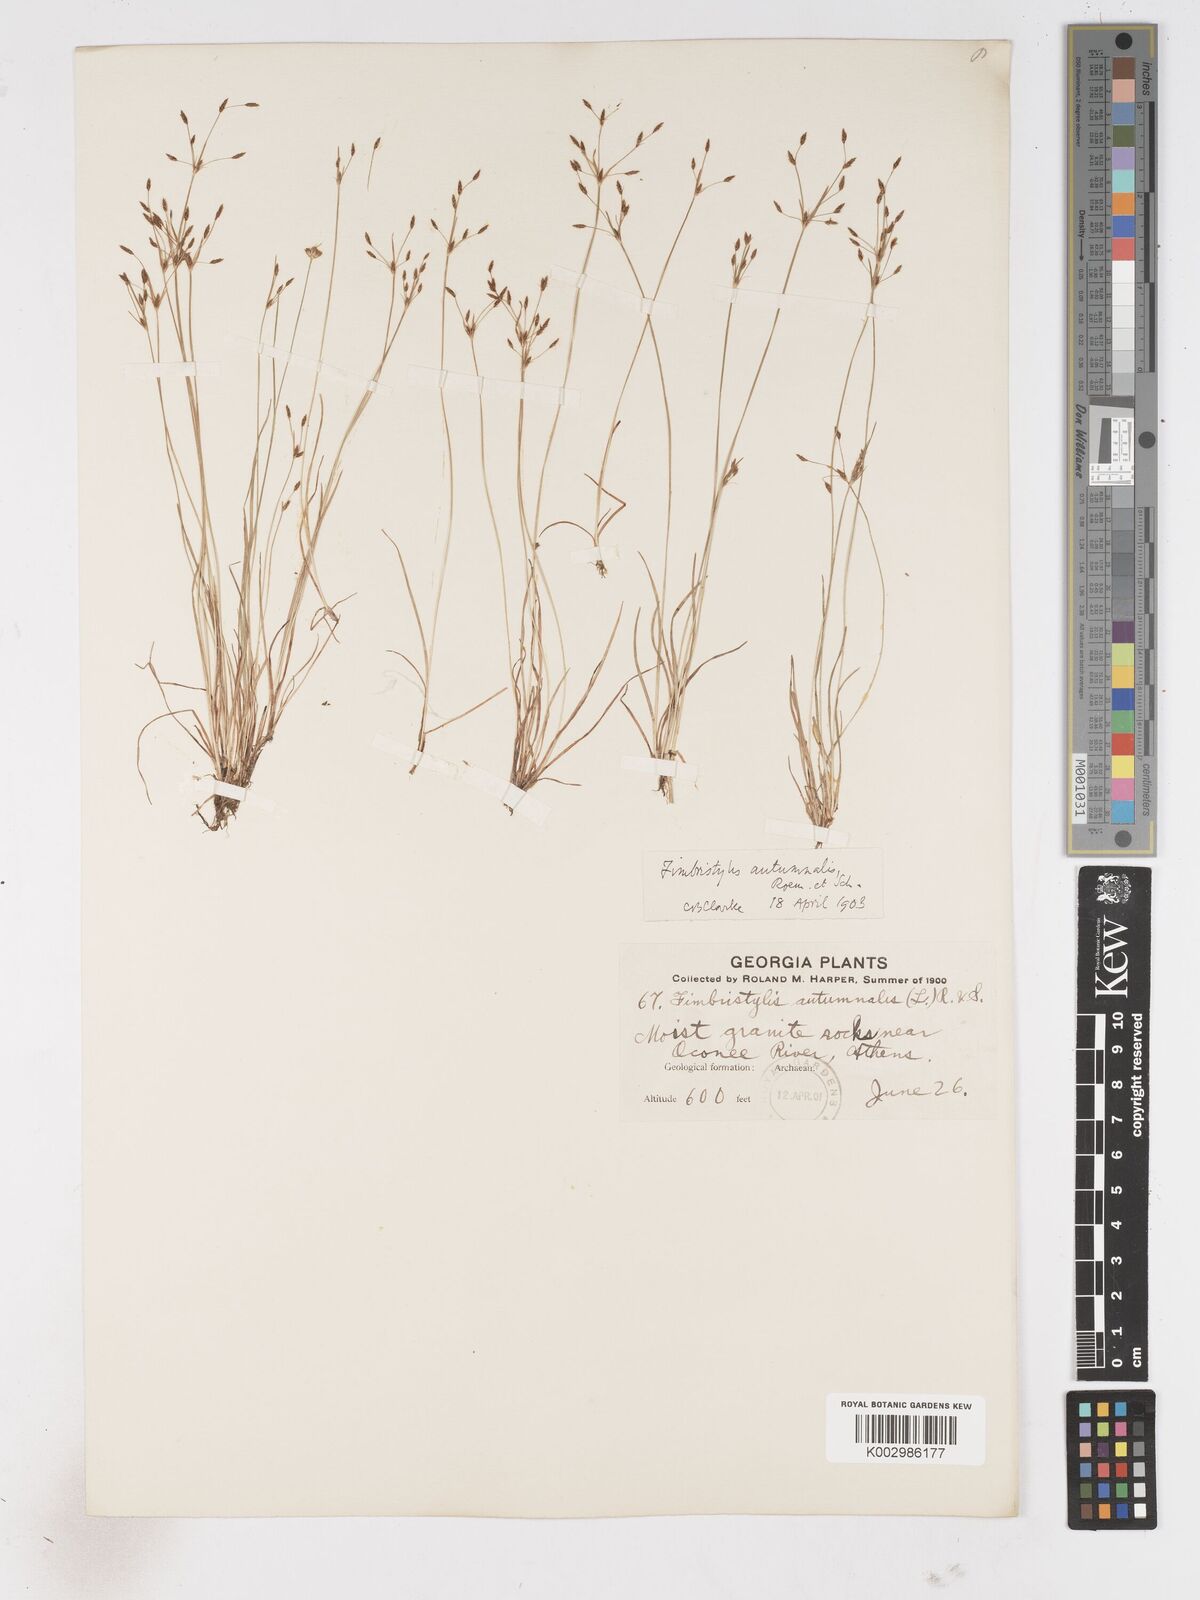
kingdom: Plantae
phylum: Tracheophyta
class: Liliopsida
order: Poales
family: Cyperaceae
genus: Fimbristylis
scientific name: Fimbristylis autumnalis
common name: Slender fimbristylis
